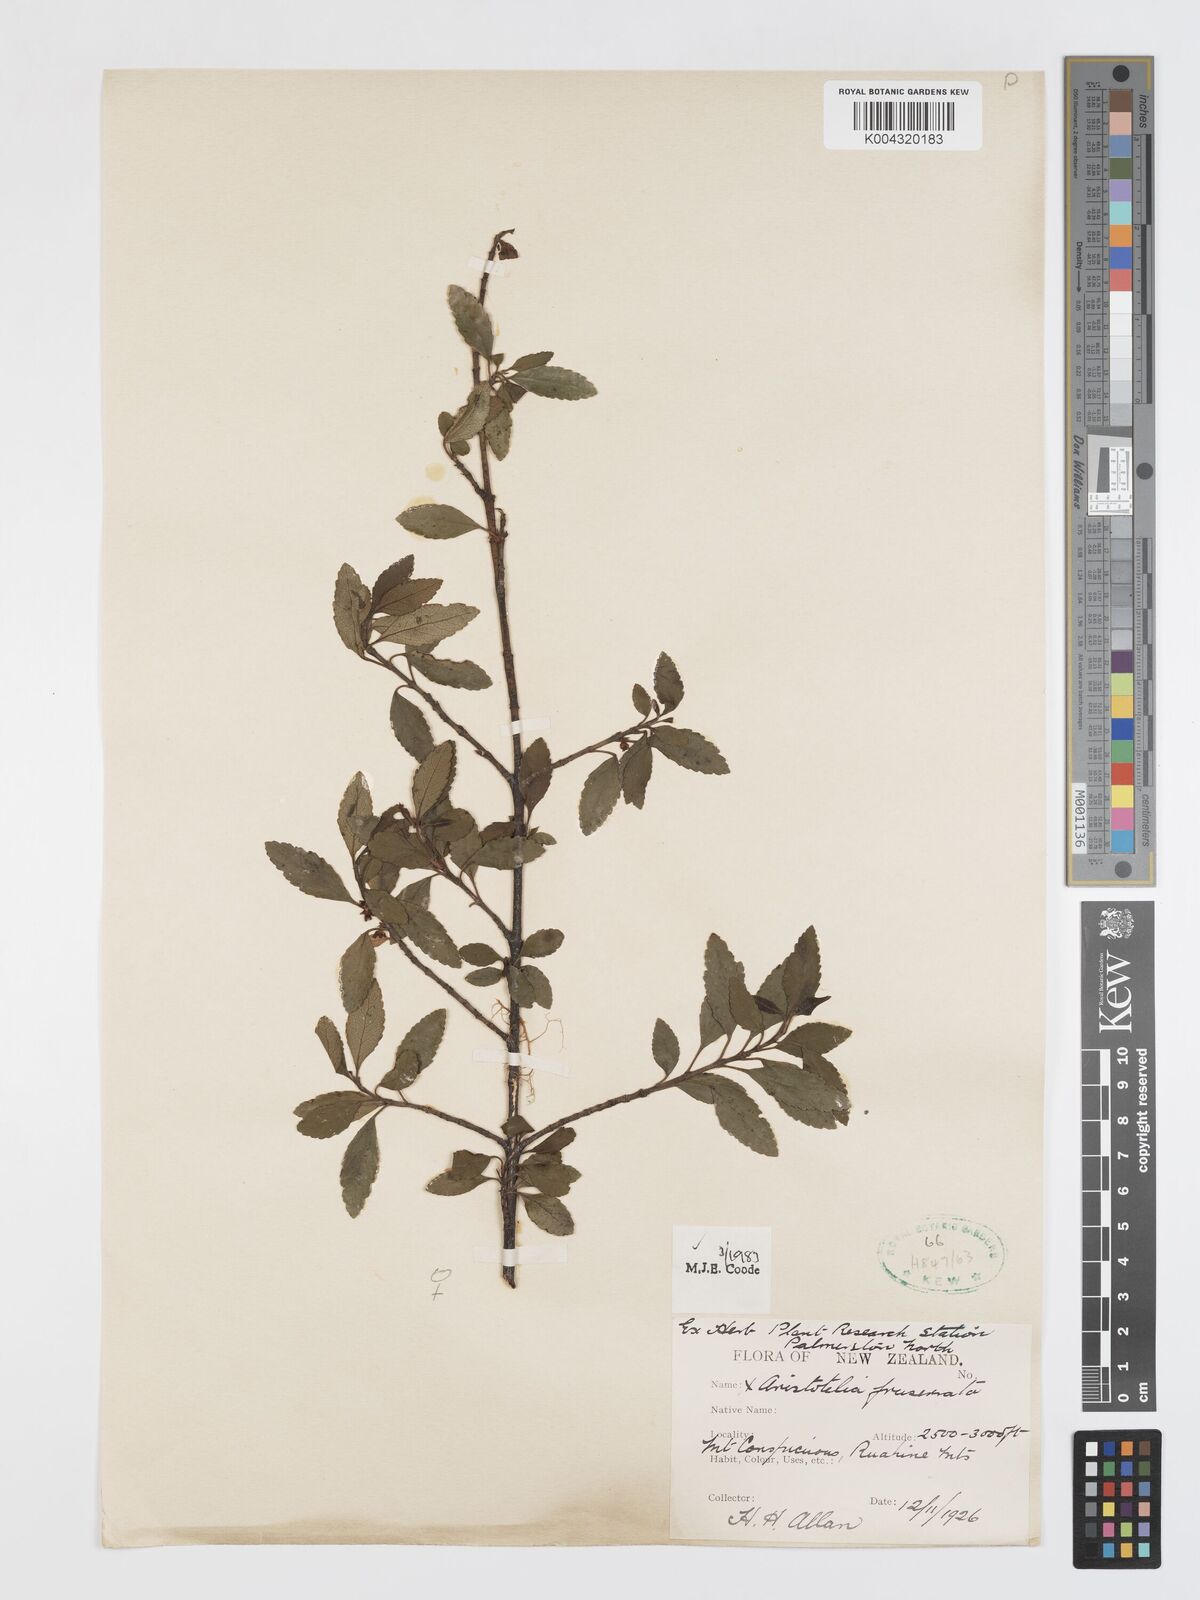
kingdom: Plantae
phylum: Tracheophyta
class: Magnoliopsida
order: Oxalidales
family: Elaeocarpaceae
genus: Aristotelia
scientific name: Aristotelia fruticosa
